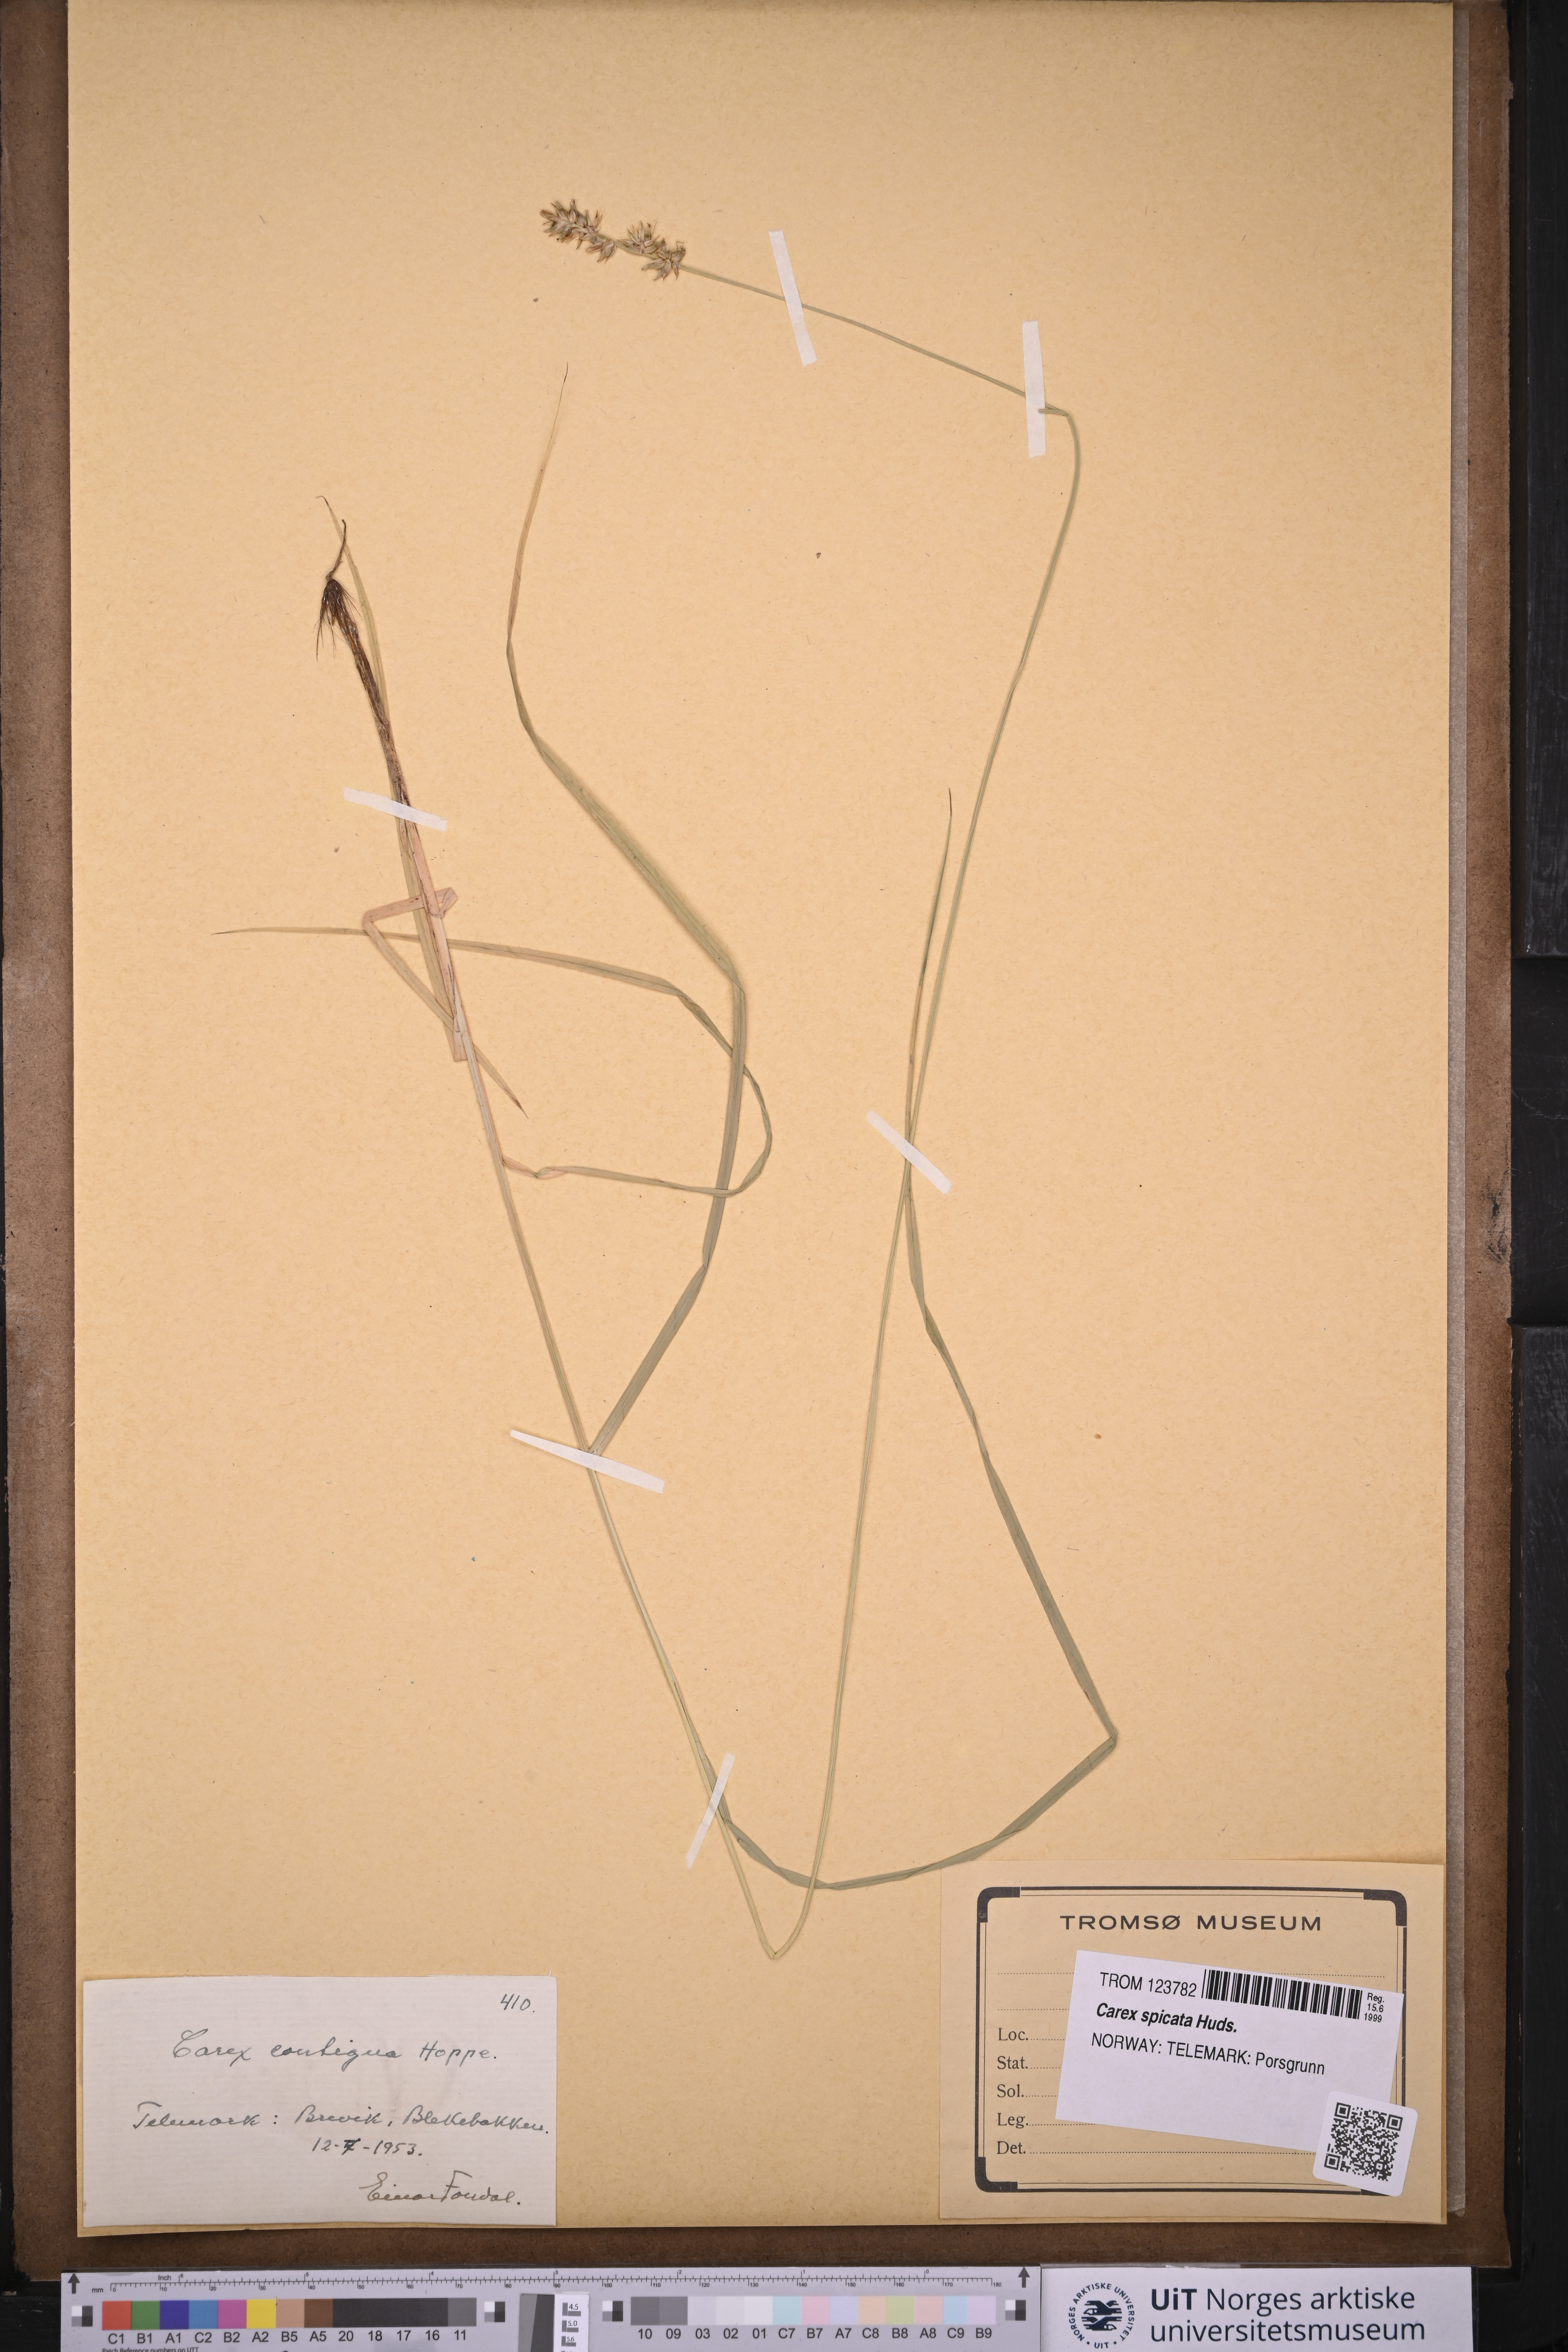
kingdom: Plantae
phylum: Tracheophyta
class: Liliopsida
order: Poales
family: Cyperaceae
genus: Carex
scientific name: Carex spicata
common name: Spiked sedge
